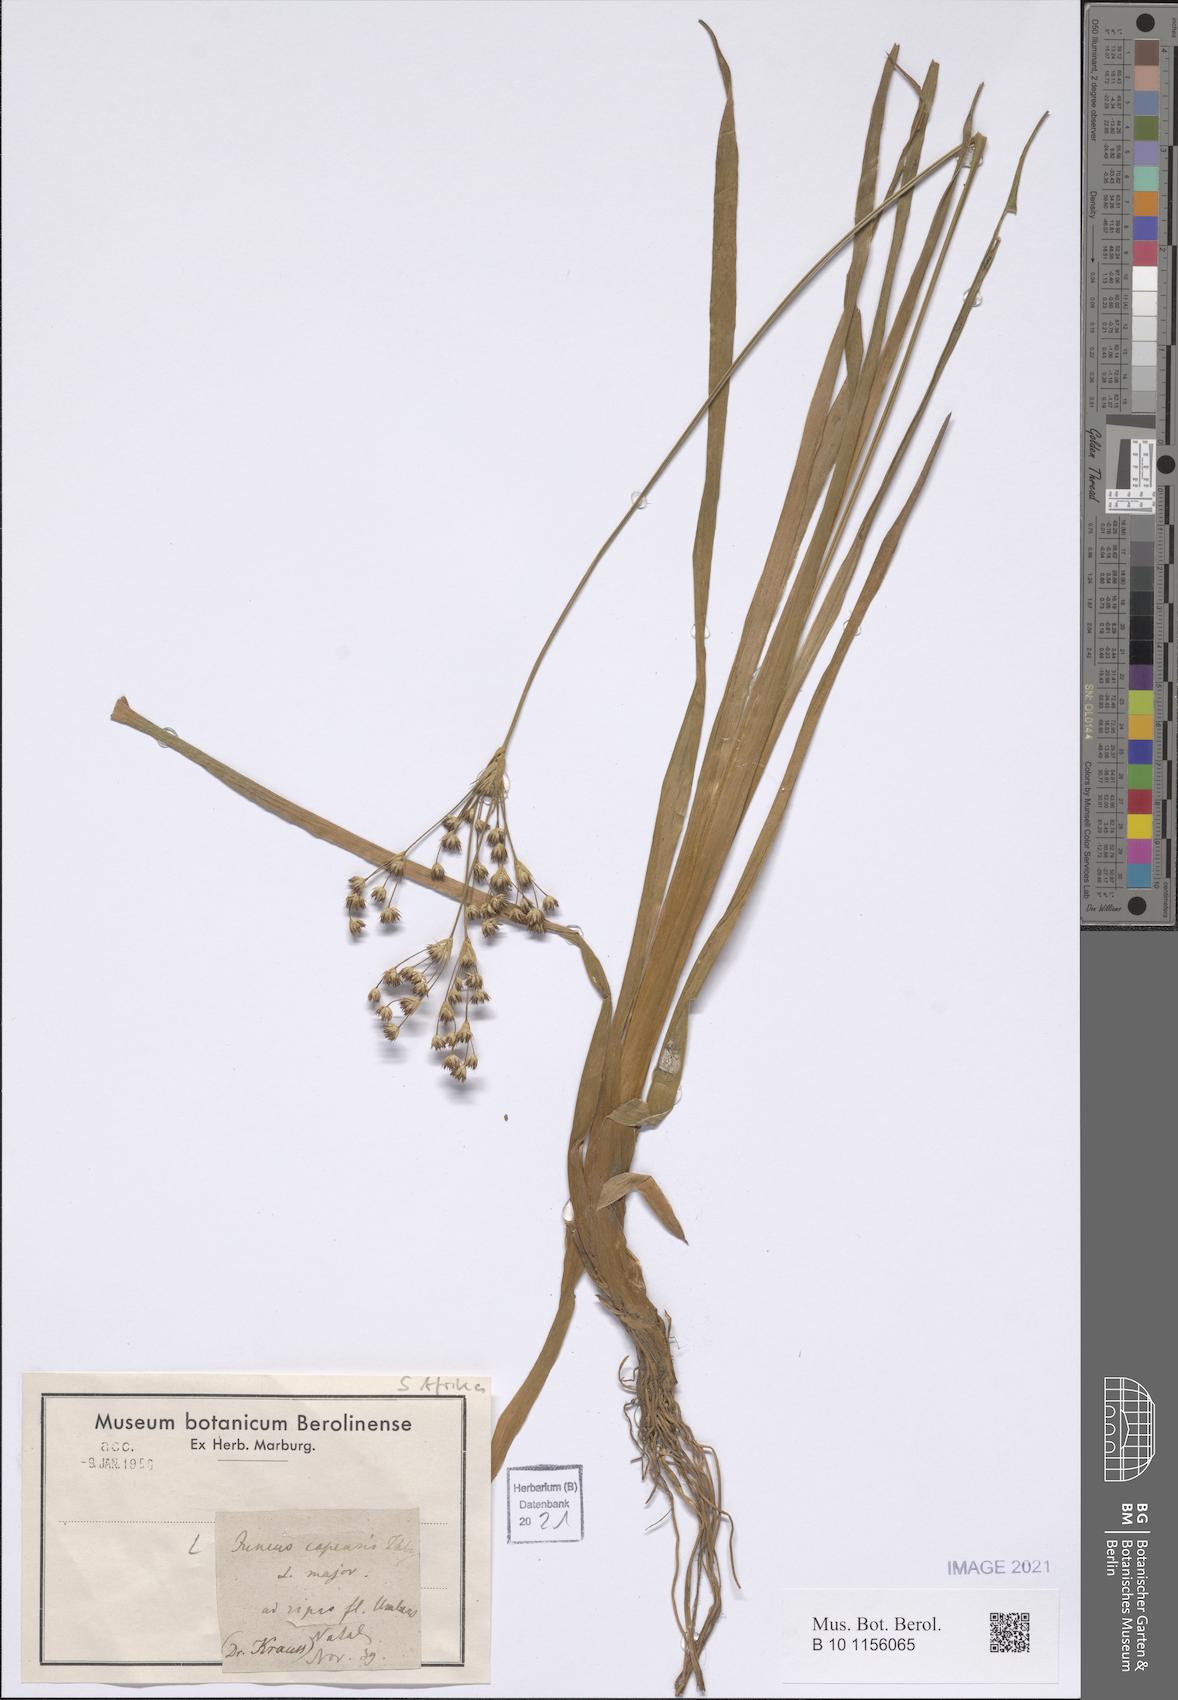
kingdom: Plantae
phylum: Tracheophyta
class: Liliopsida
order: Poales
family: Juncaceae
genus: Juncus
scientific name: Juncus capensis
